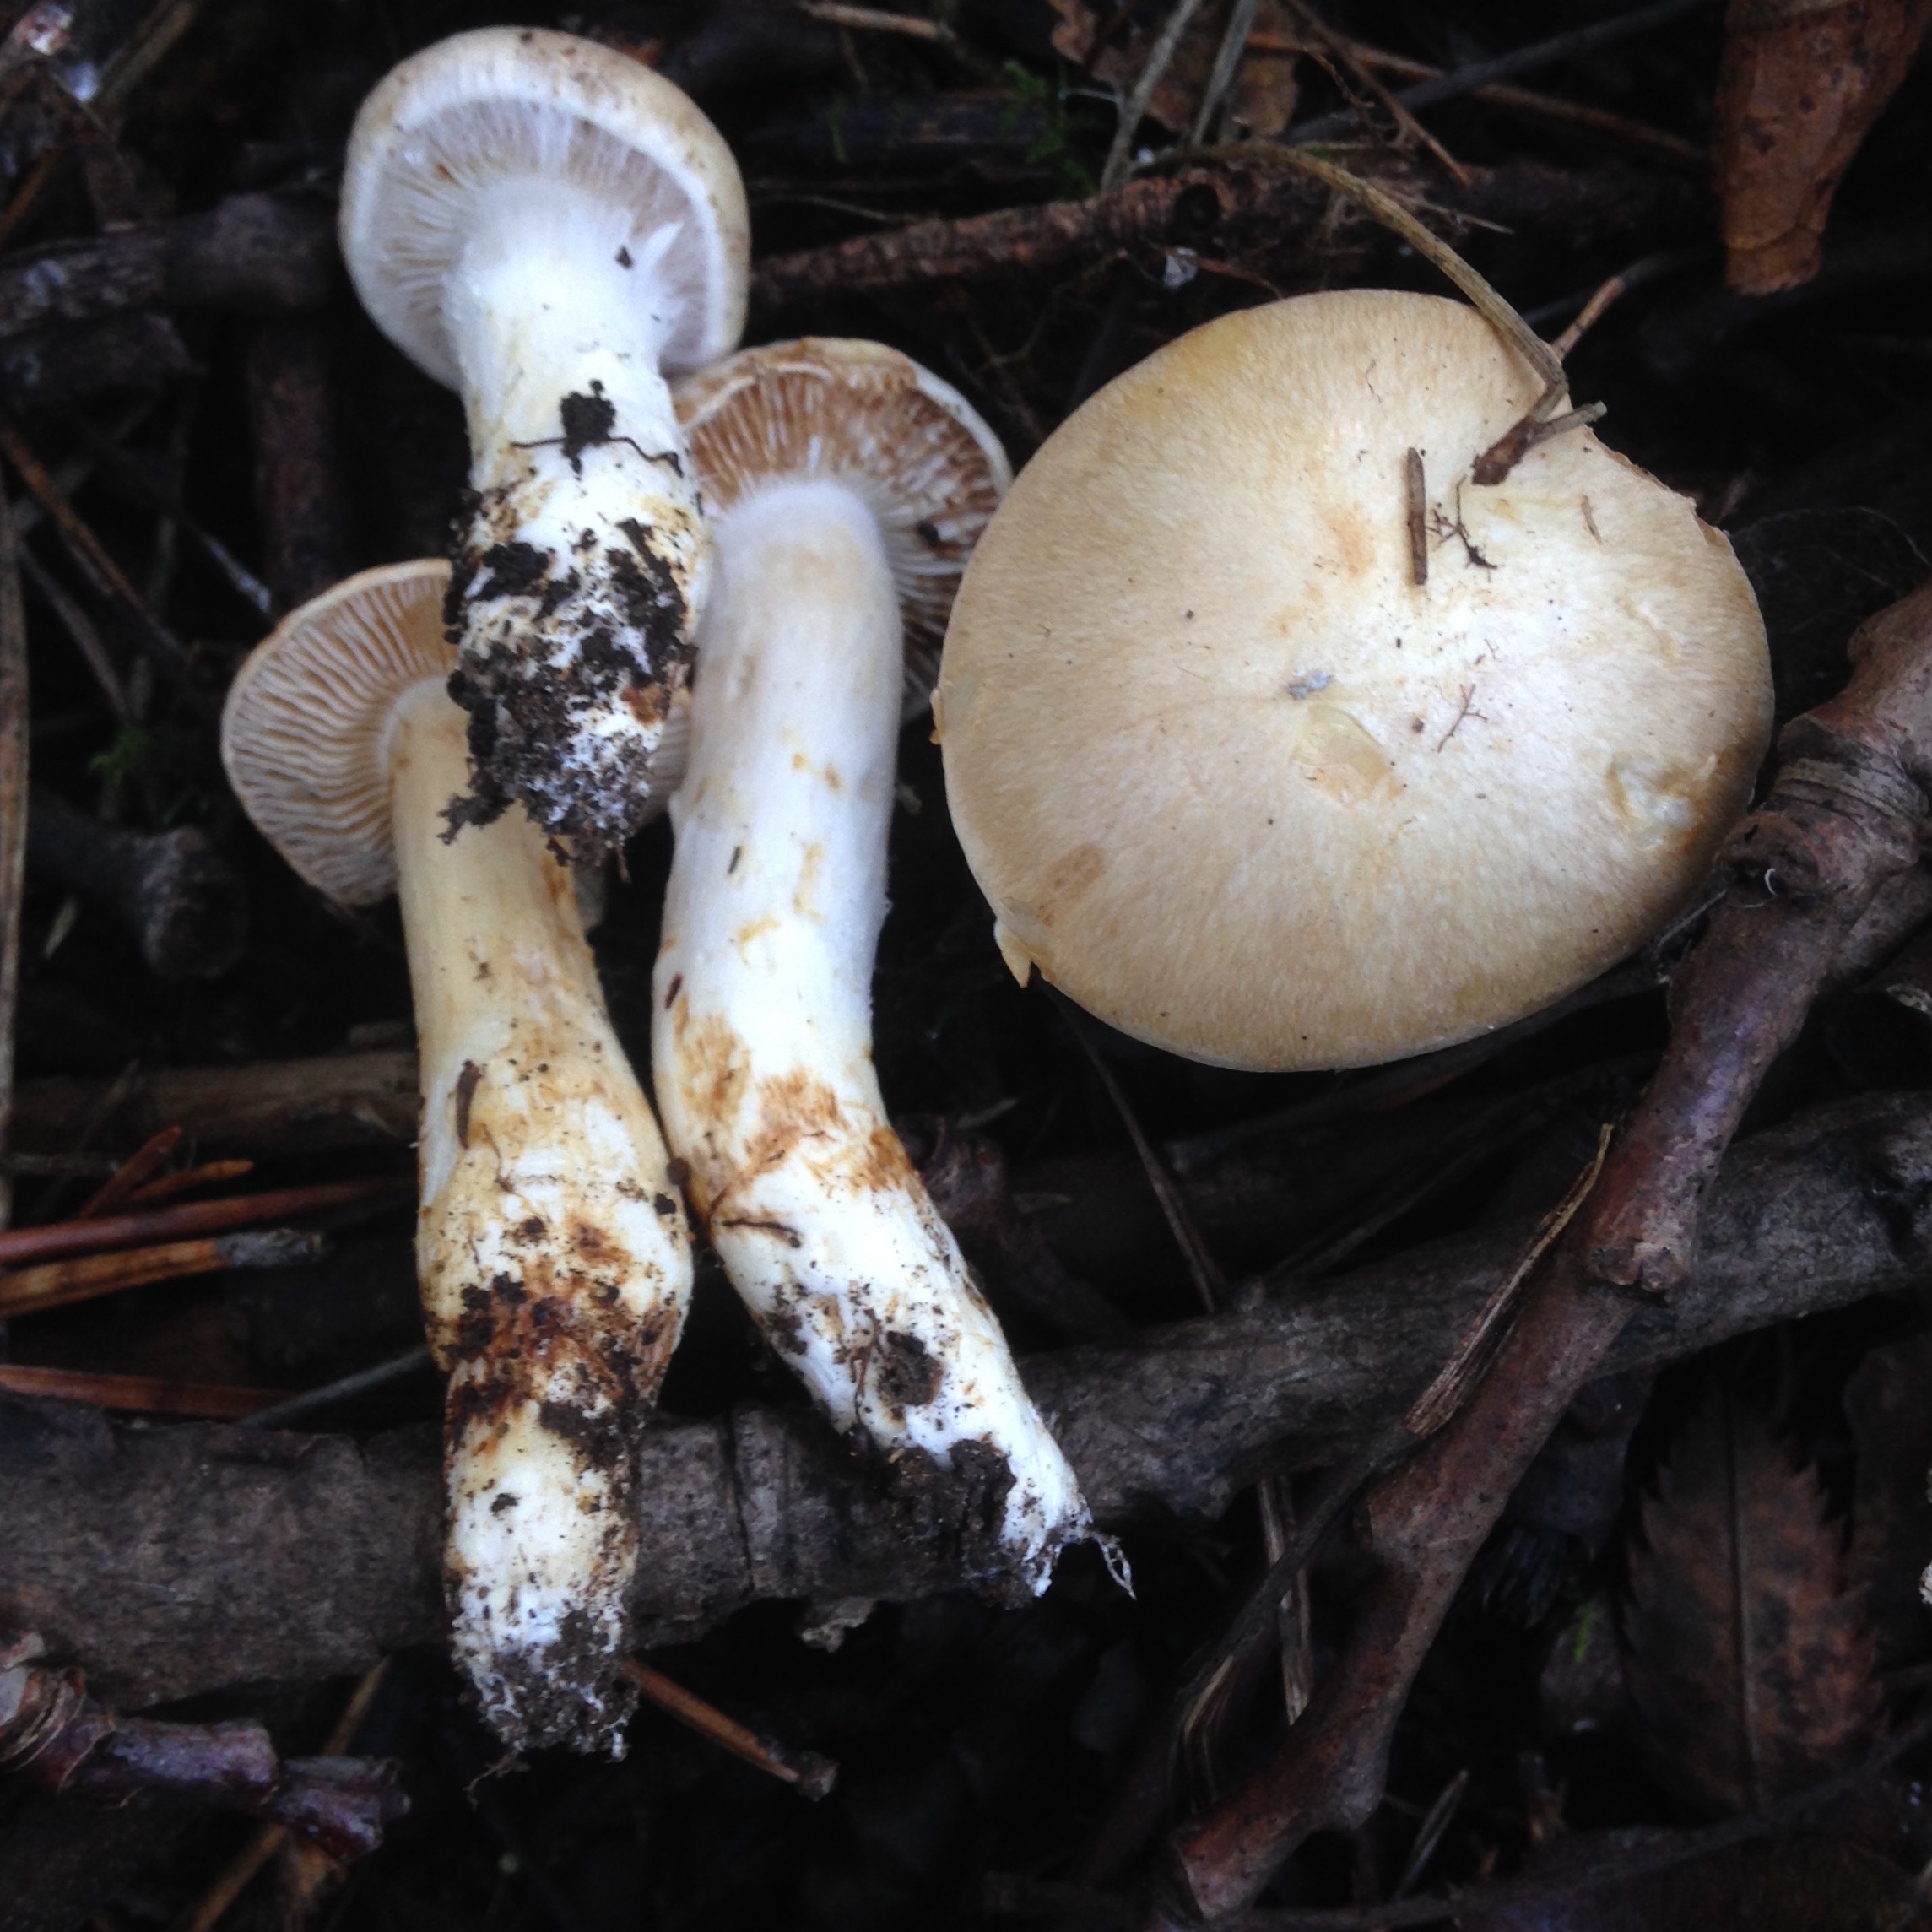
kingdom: Fungi
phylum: Basidiomycota
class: Agaricomycetes
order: Agaricales
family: Cortinariaceae
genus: Cortinarius
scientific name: Cortinarius lucorum
